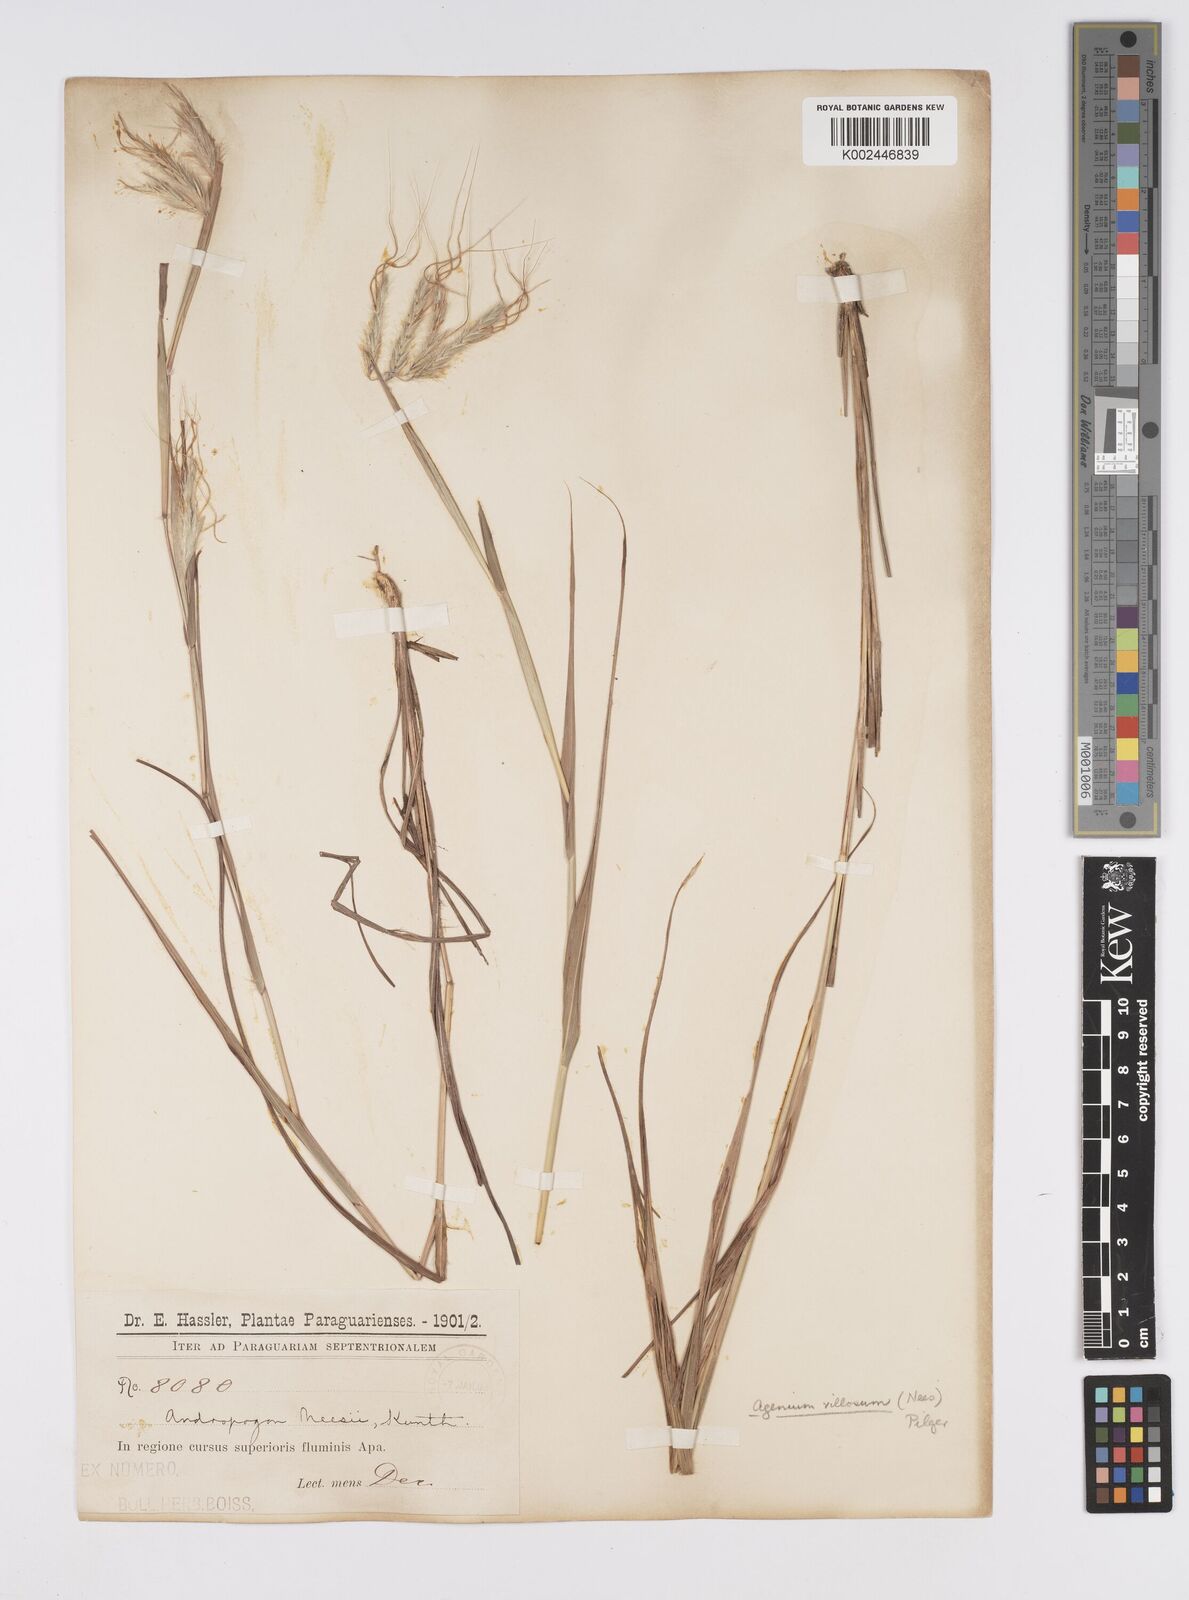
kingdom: Plantae
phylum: Tracheophyta
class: Liliopsida
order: Poales
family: Poaceae
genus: Agenium
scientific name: Agenium villosum
